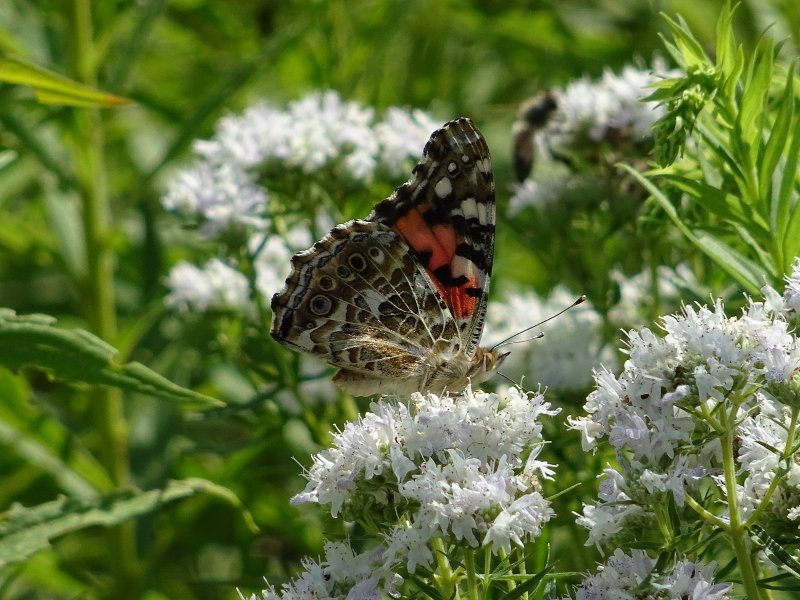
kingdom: Animalia
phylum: Arthropoda
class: Insecta
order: Lepidoptera
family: Nymphalidae
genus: Vanessa
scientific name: Vanessa cardui
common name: Painted Lady
